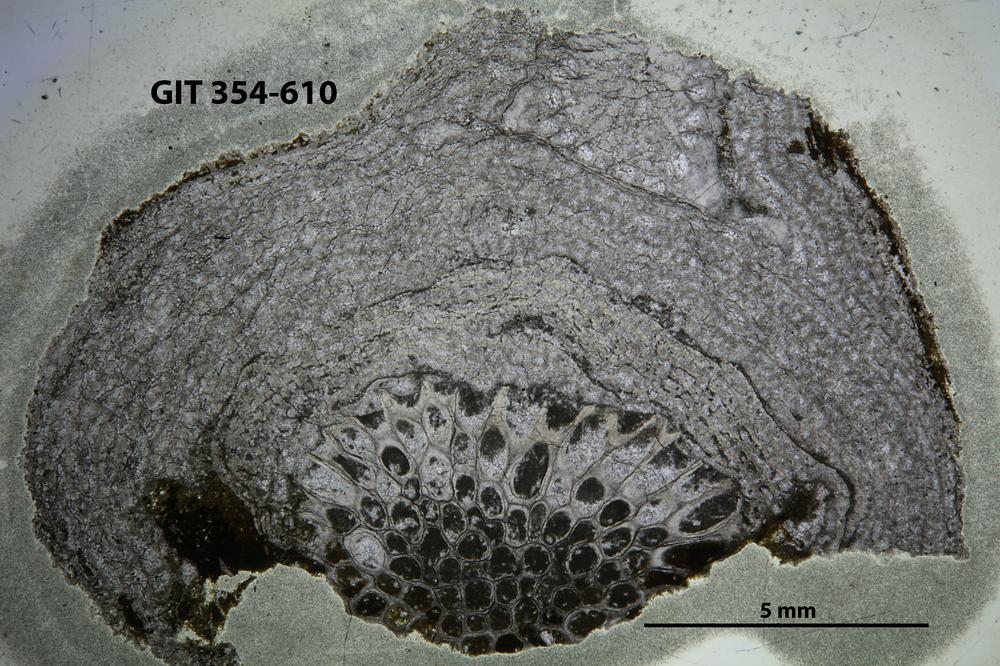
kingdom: Animalia
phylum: Porifera
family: Stromatoporellidae
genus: Simplexodictyon
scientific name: Simplexodictyon
